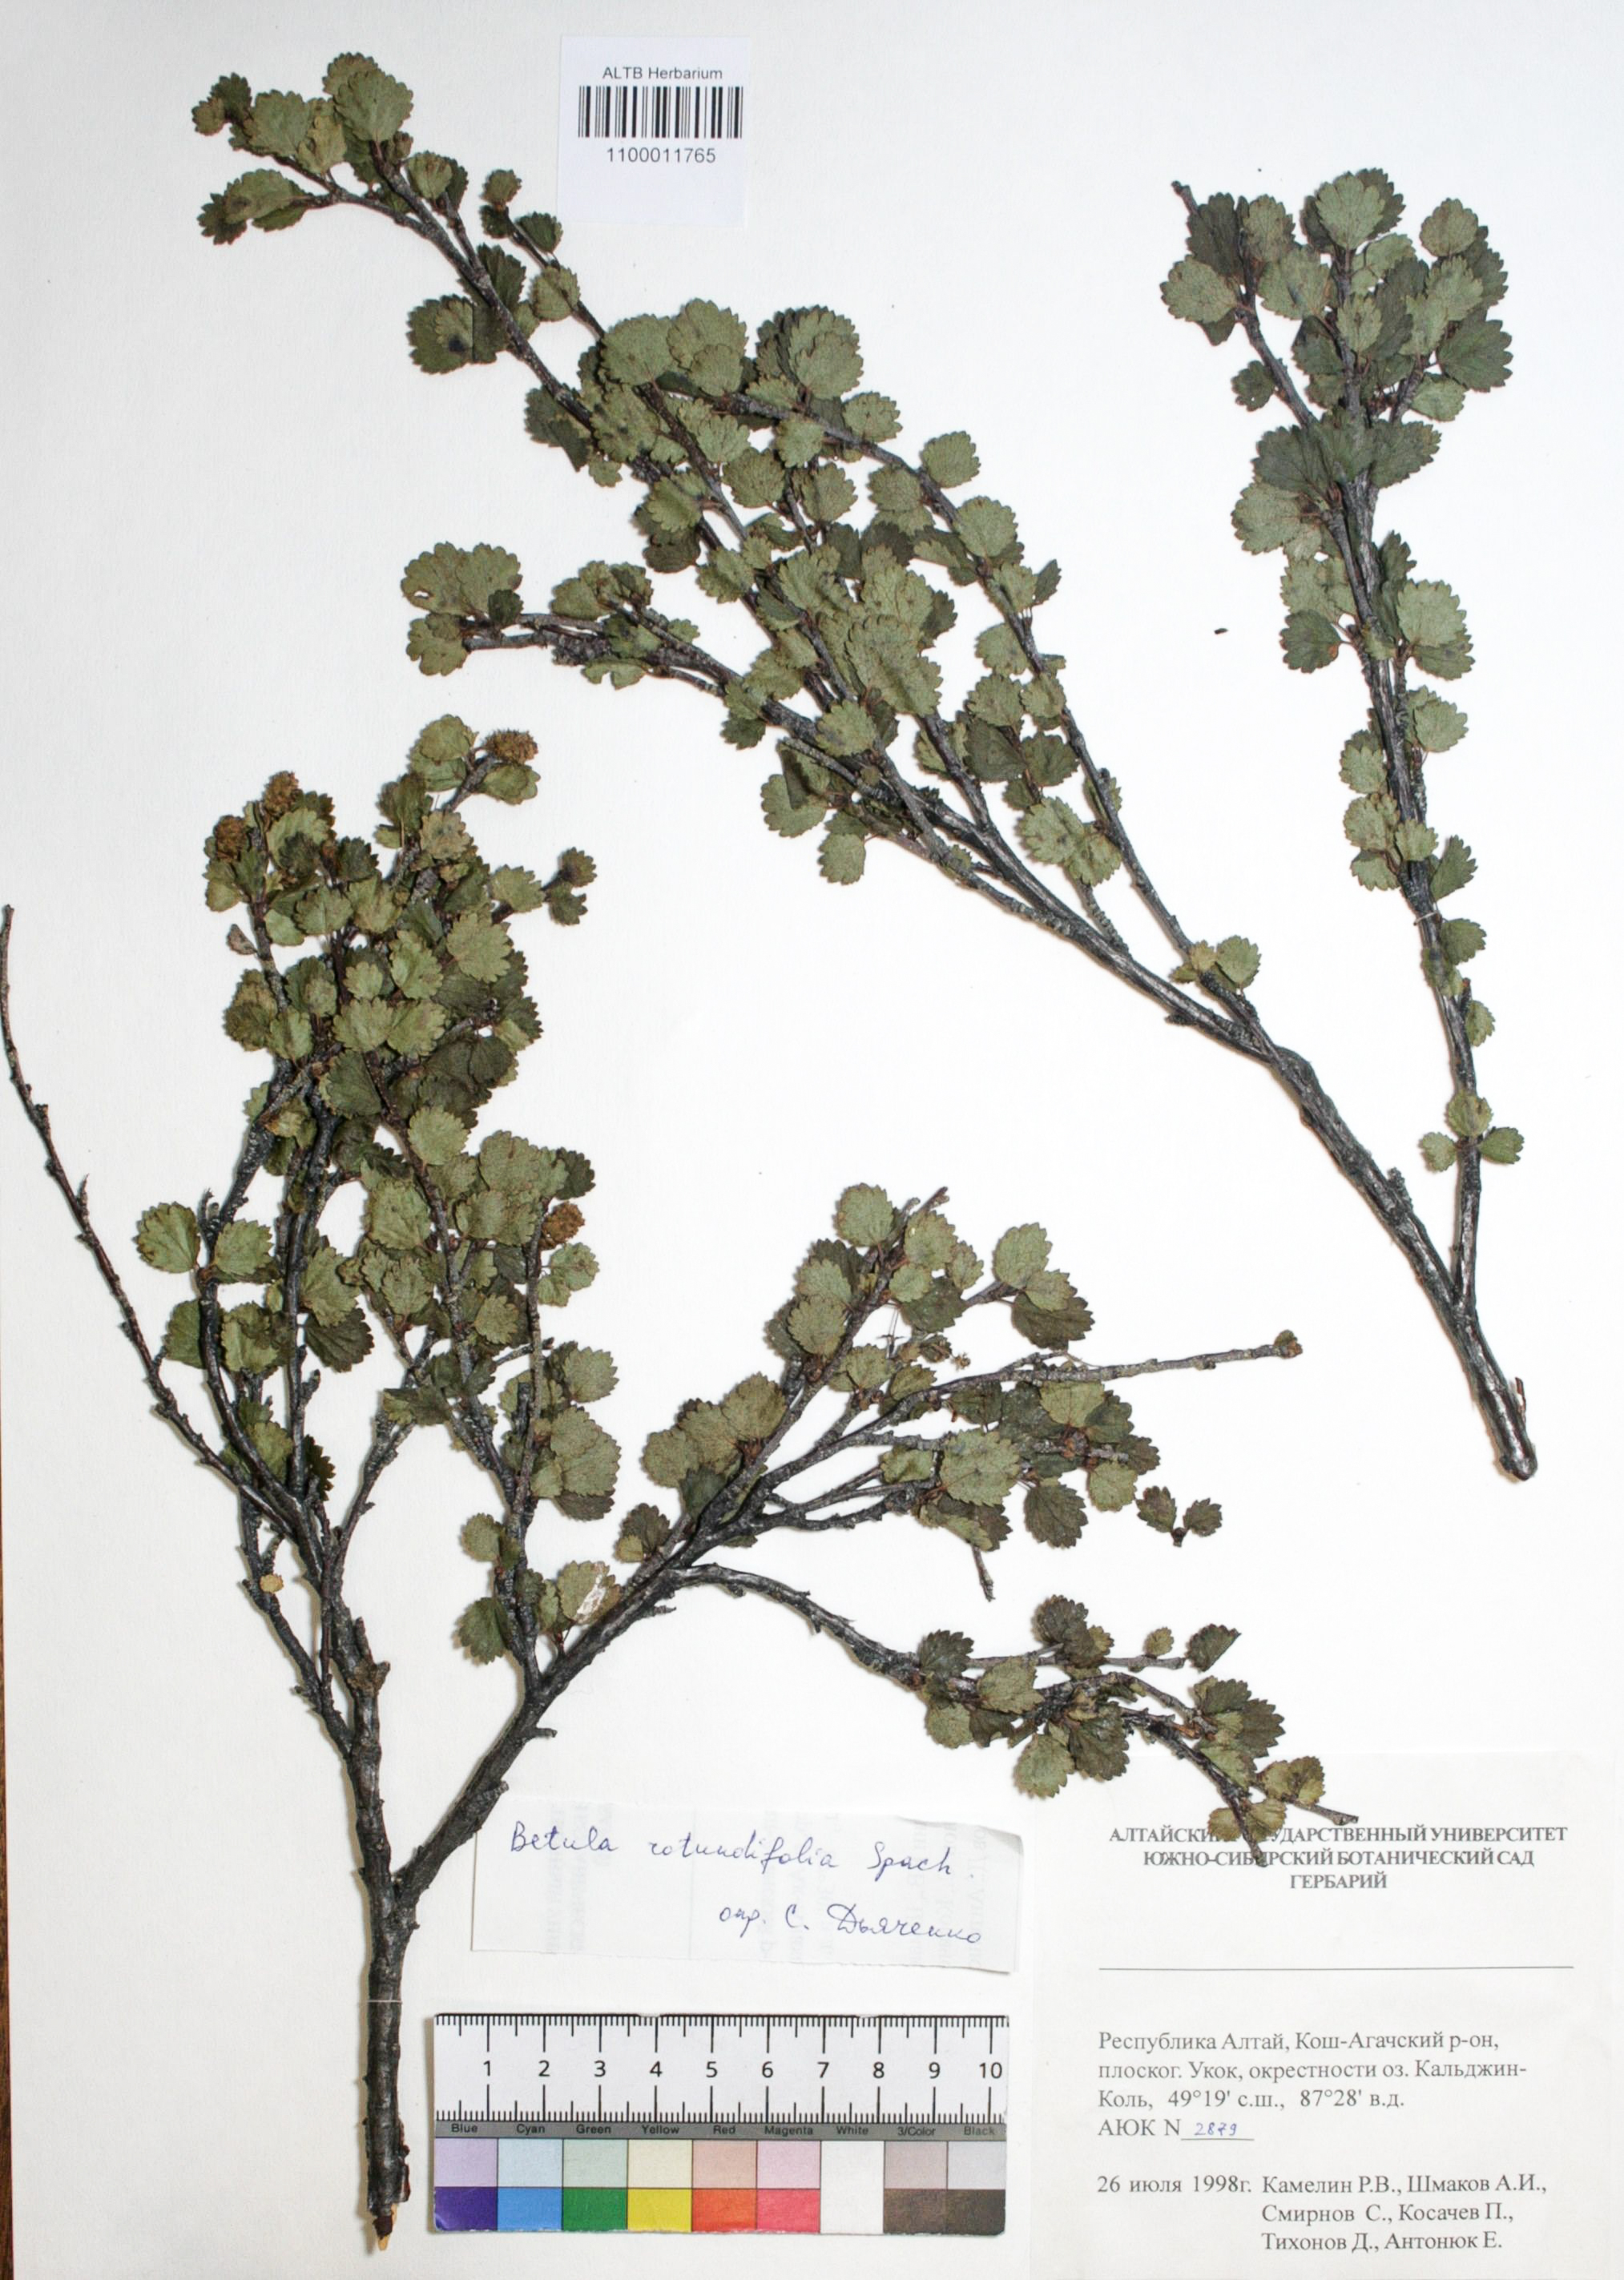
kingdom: Plantae
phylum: Tracheophyta
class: Magnoliopsida
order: Fagales
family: Betulaceae
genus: Betula
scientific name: Betula glandulosa
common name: Dwarf birch
